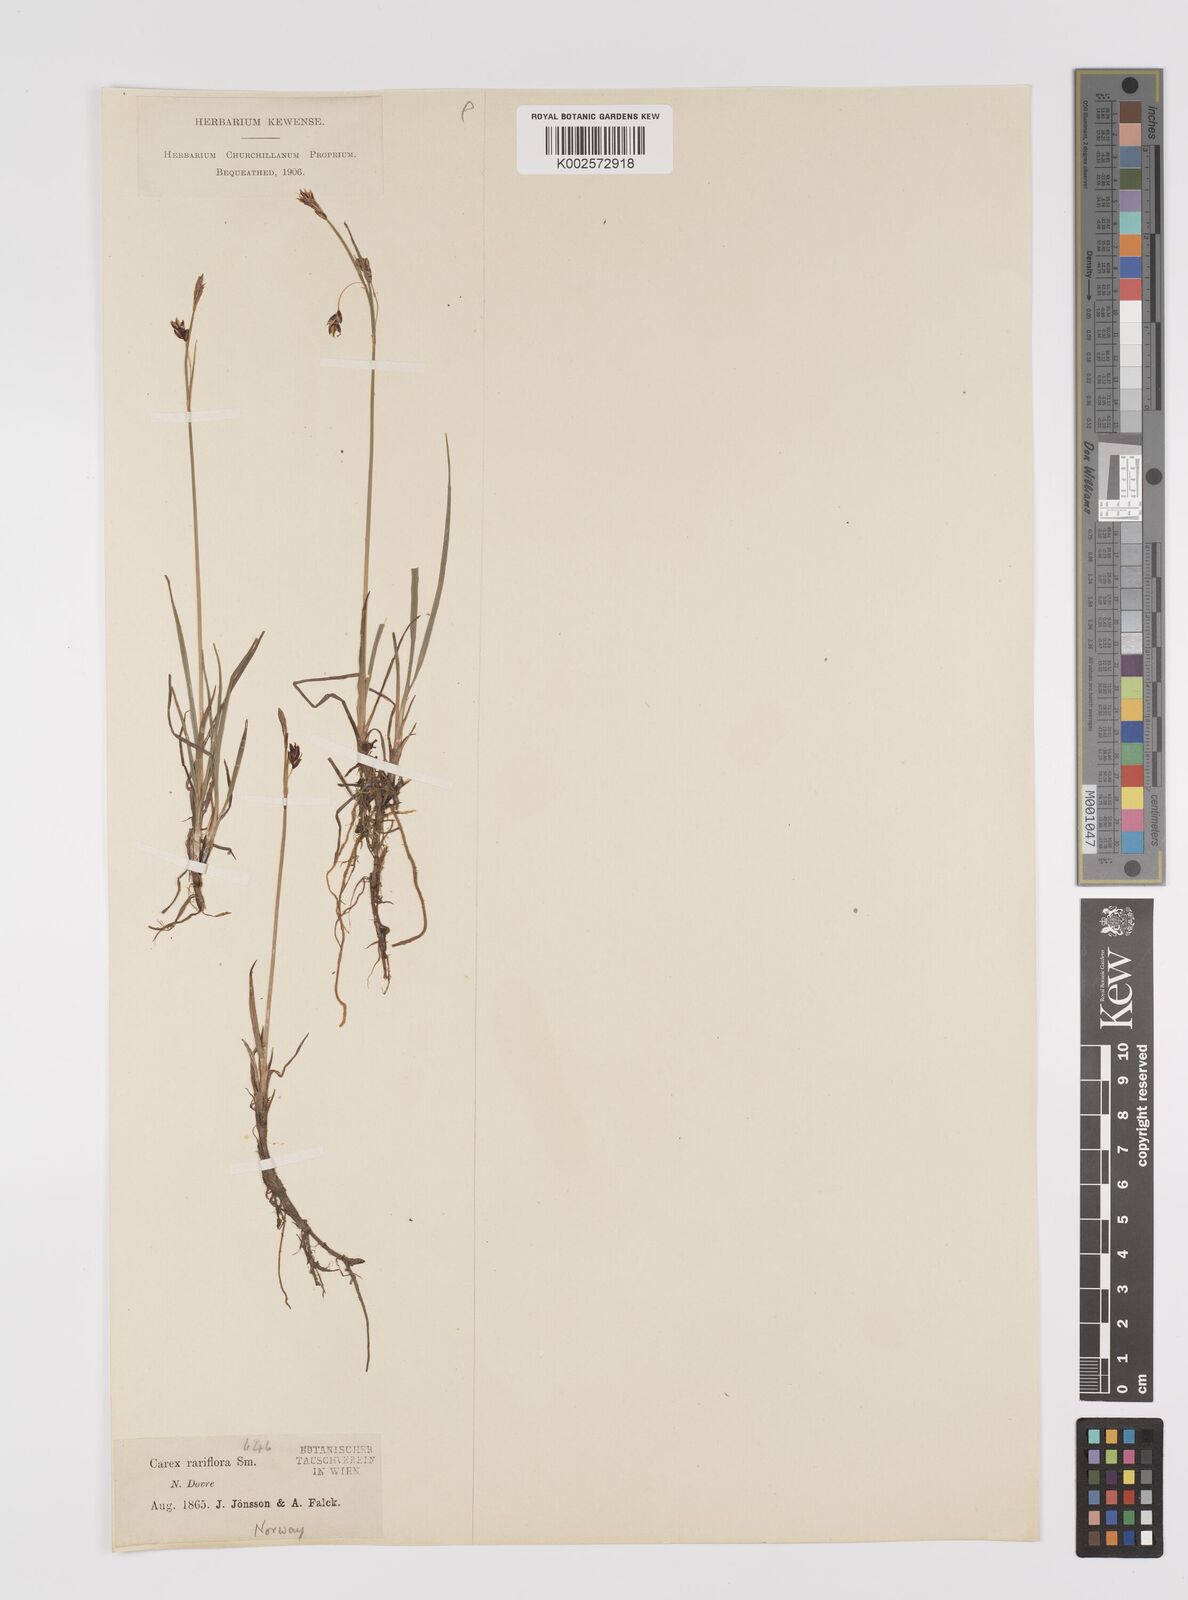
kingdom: Plantae
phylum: Tracheophyta
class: Liliopsida
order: Poales
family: Cyperaceae
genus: Carex
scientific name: Carex rariflora
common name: Loose-flowered alpine sedge
